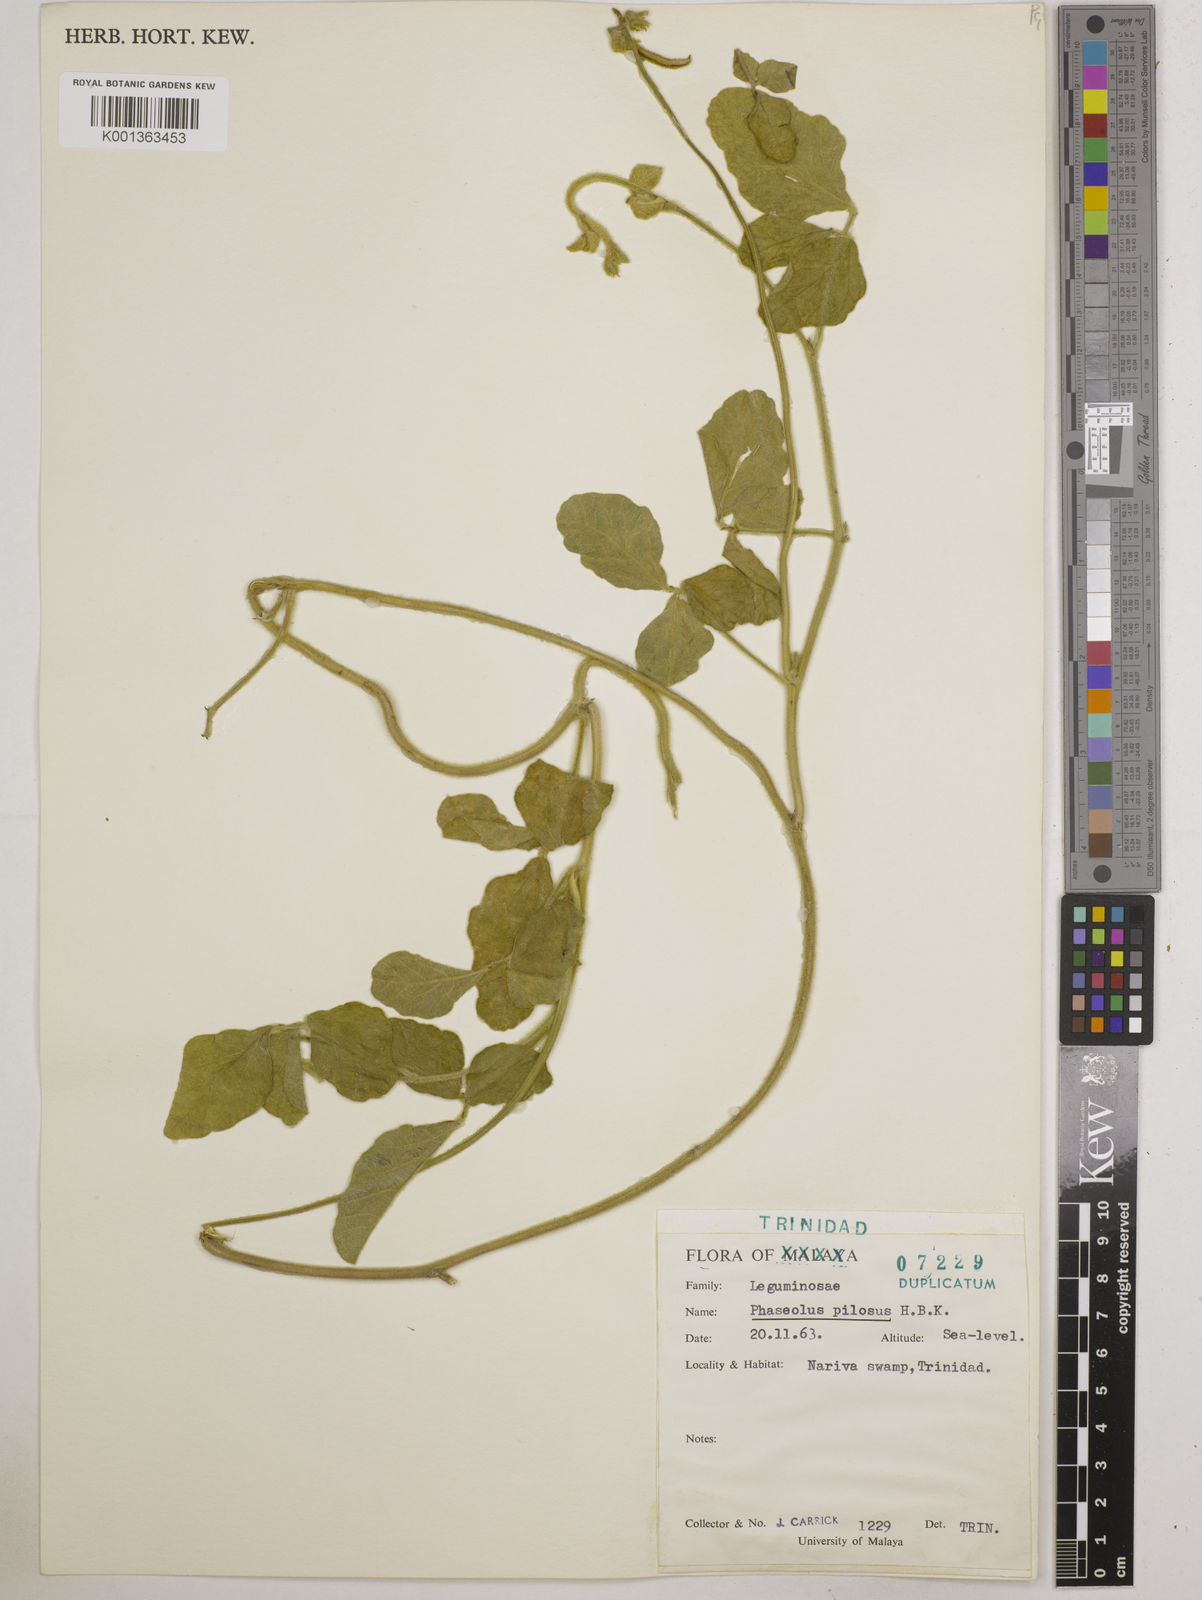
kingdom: Plantae
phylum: Tracheophyta
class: Magnoliopsida
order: Fabales
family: Fabaceae
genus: Vigna
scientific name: Vigna lasiocarpa
